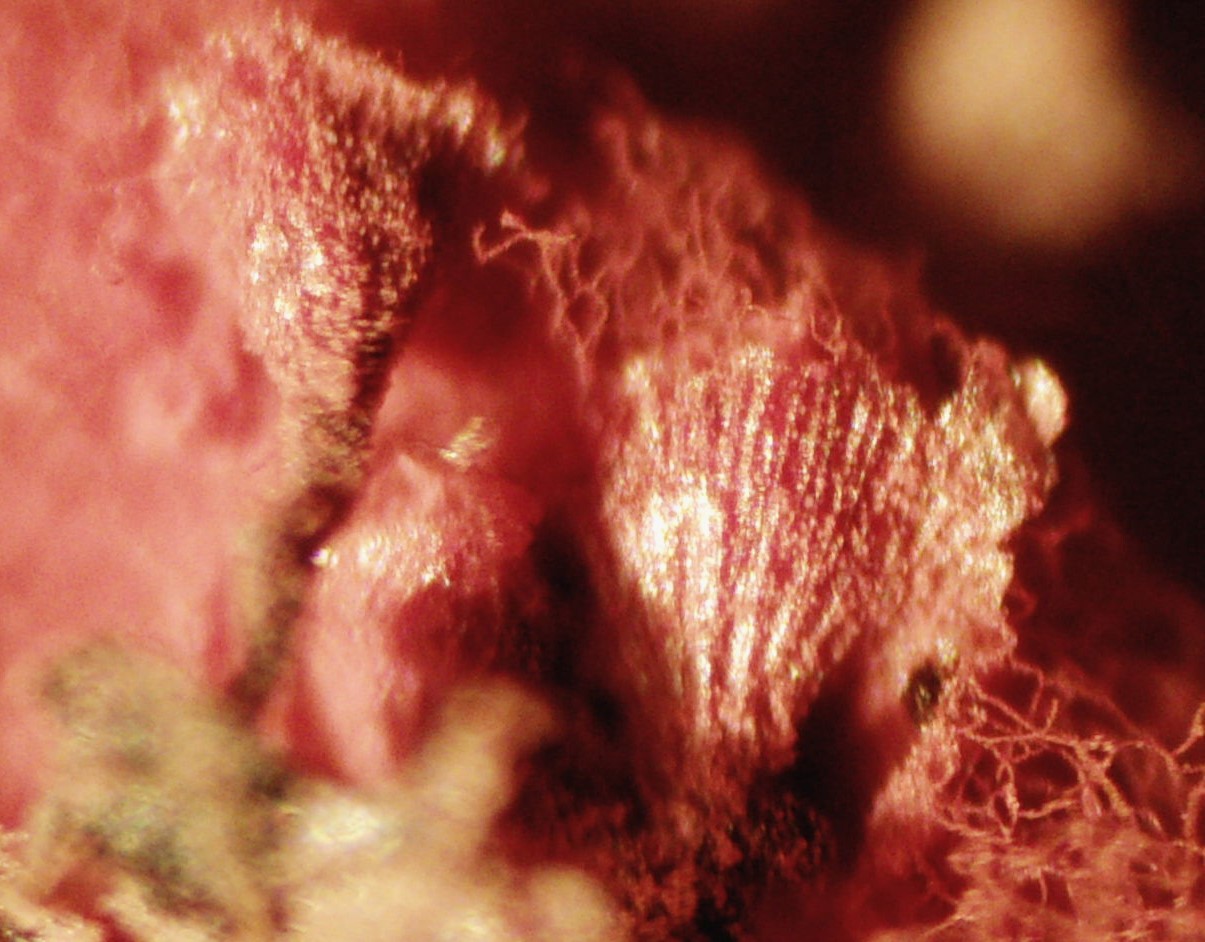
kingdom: Protozoa
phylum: Mycetozoa
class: Myxomycetes
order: Trichiales
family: Arcyriaceae
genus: Arcyria
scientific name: Arcyria denudata
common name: karminrød skålsvøb
